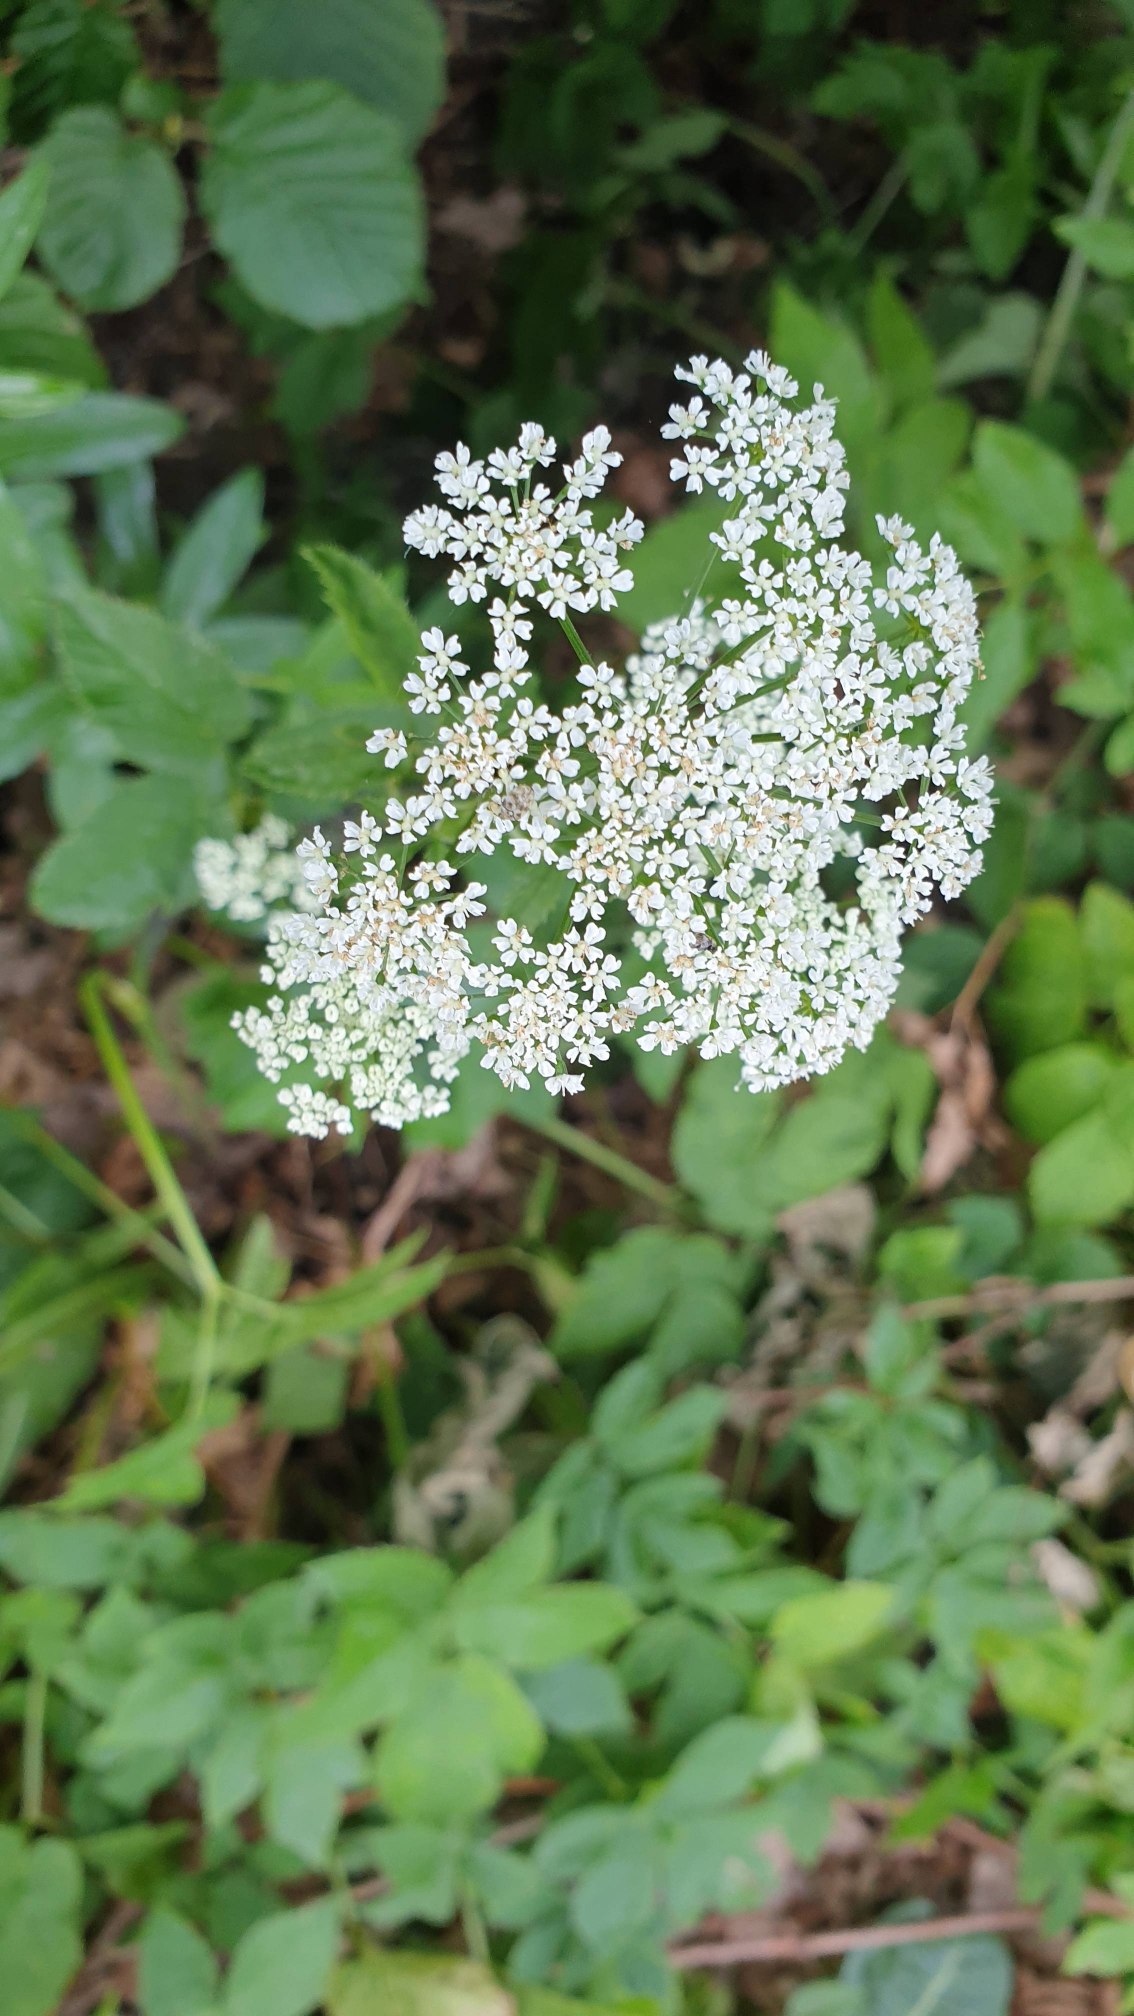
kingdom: Plantae
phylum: Tracheophyta
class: Magnoliopsida
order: Apiales
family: Apiaceae
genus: Aegopodium
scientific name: Aegopodium podagraria
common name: Skvalderkål
